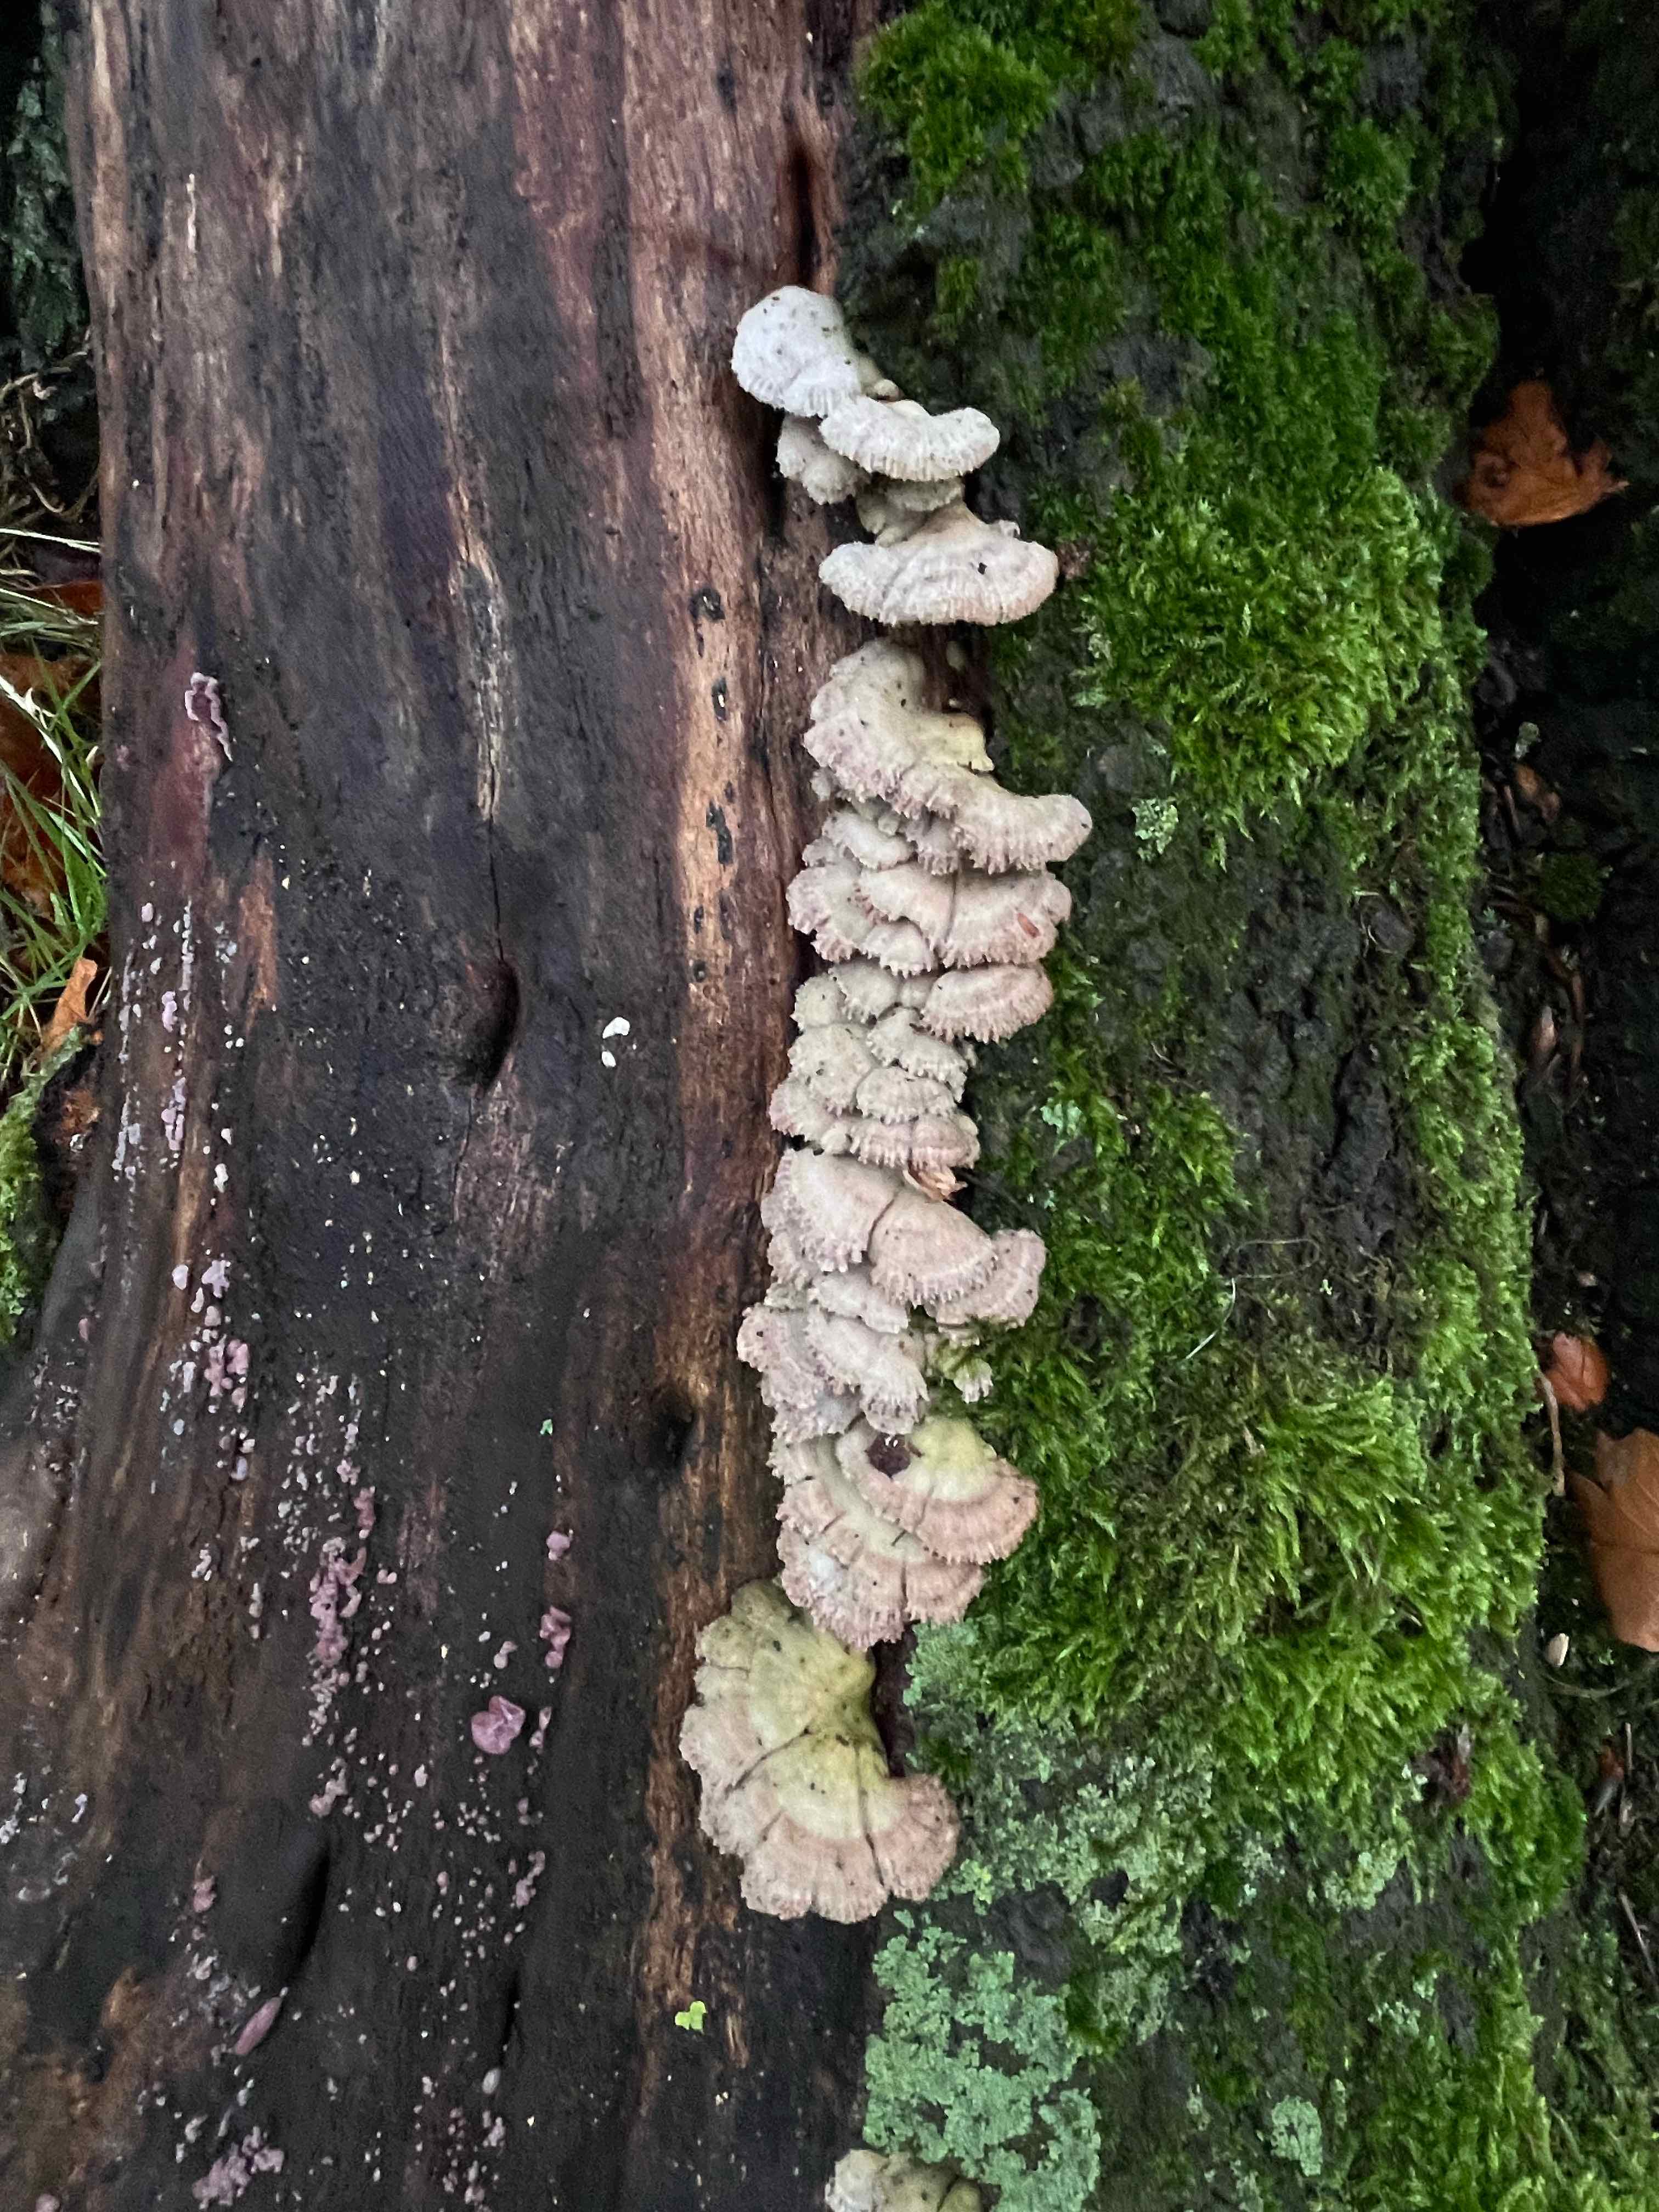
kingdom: Fungi
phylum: Basidiomycota
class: Agaricomycetes
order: Agaricales
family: Schizophyllaceae
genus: Schizophyllum
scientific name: Schizophyllum commune
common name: kløvblad
